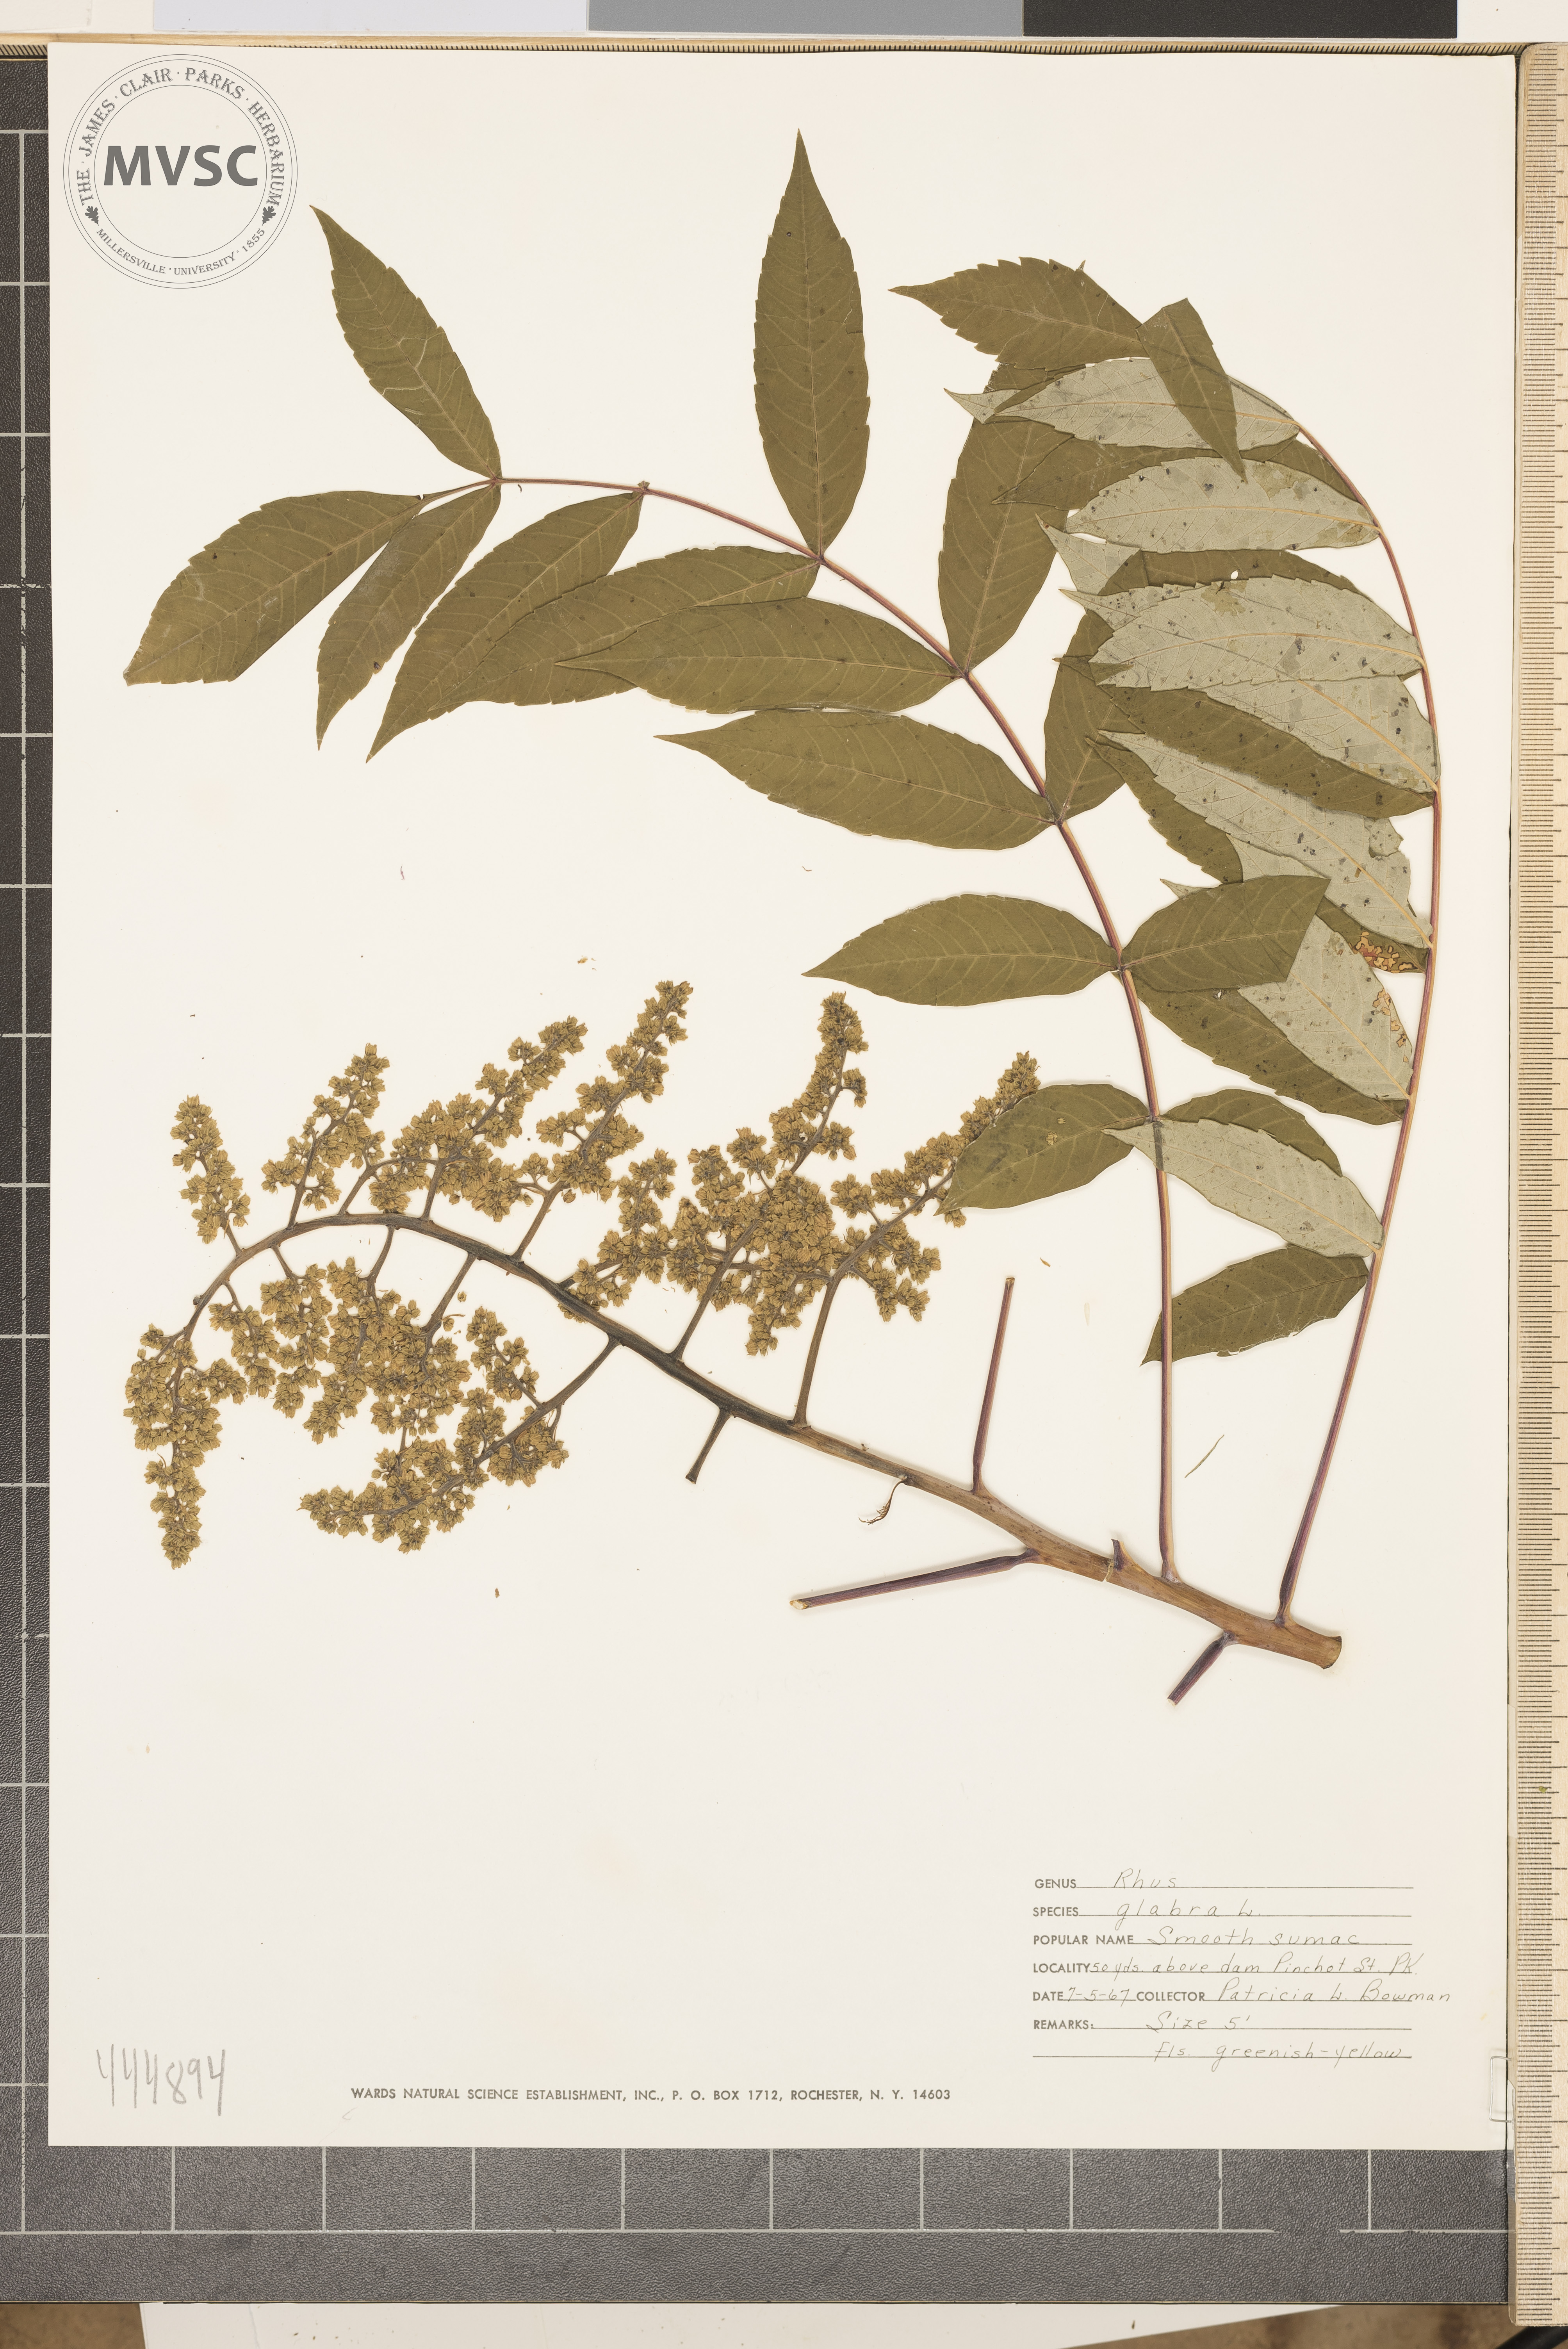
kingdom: Plantae
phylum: Tracheophyta
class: Magnoliopsida
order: Sapindales
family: Anacardiaceae
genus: Rhus
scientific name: Rhus glabra
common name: Scarlet sumac
